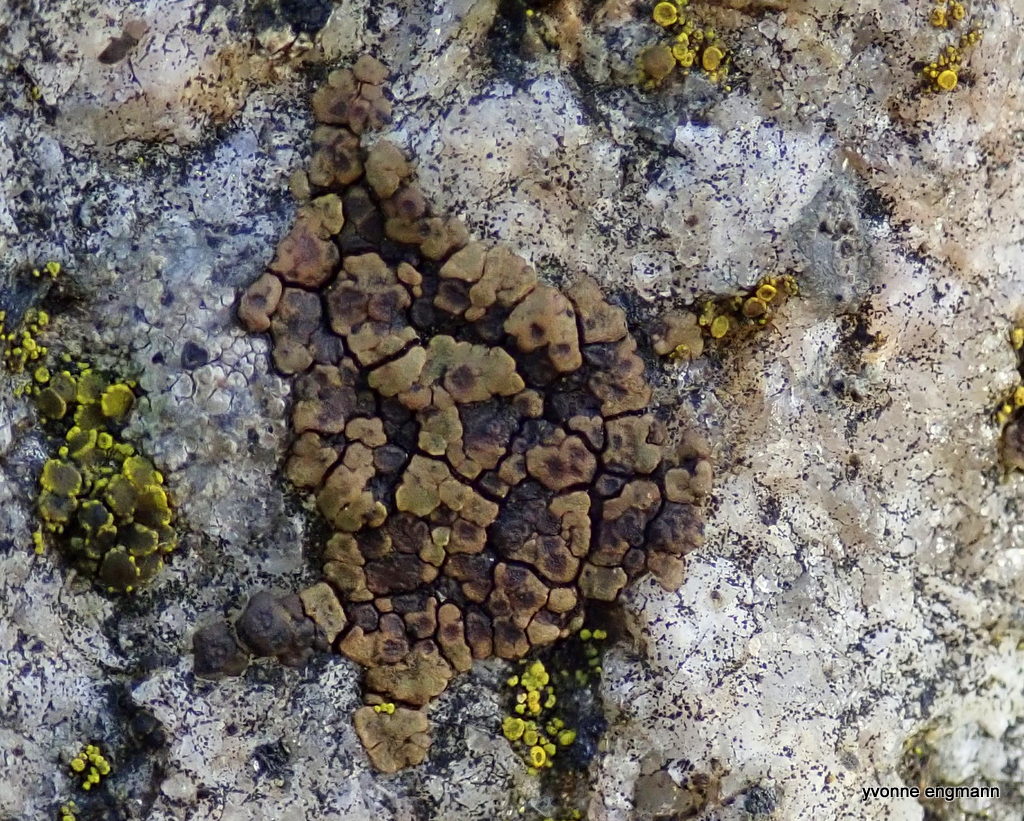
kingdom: Fungi
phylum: Ascomycota
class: Lecanoromycetes
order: Acarosporales
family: Acarosporaceae
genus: Acarospora
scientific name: Acarospora fuscata
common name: brun småsporelav
